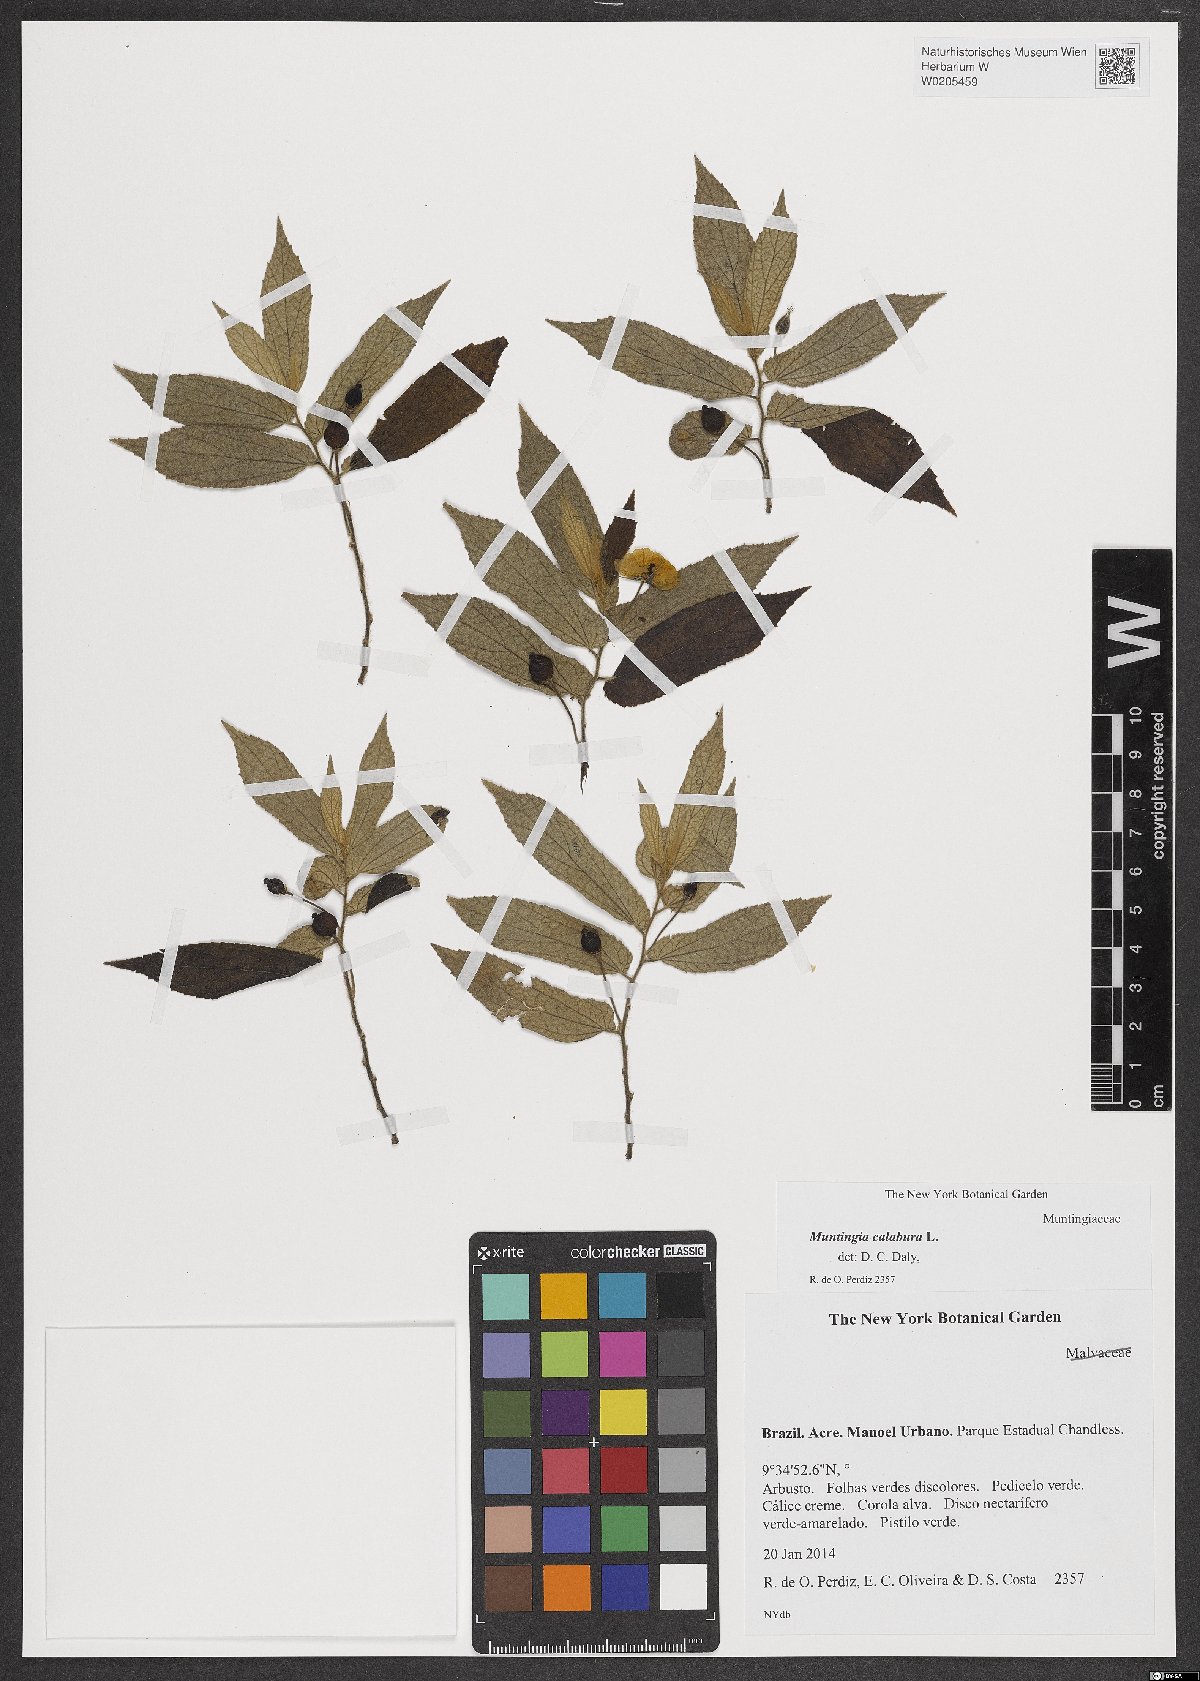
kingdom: Plantae
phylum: Tracheophyta
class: Magnoliopsida
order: Malvales
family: Muntingiaceae
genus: Muntingia
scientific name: Muntingia calabura
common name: Strawberrytree
